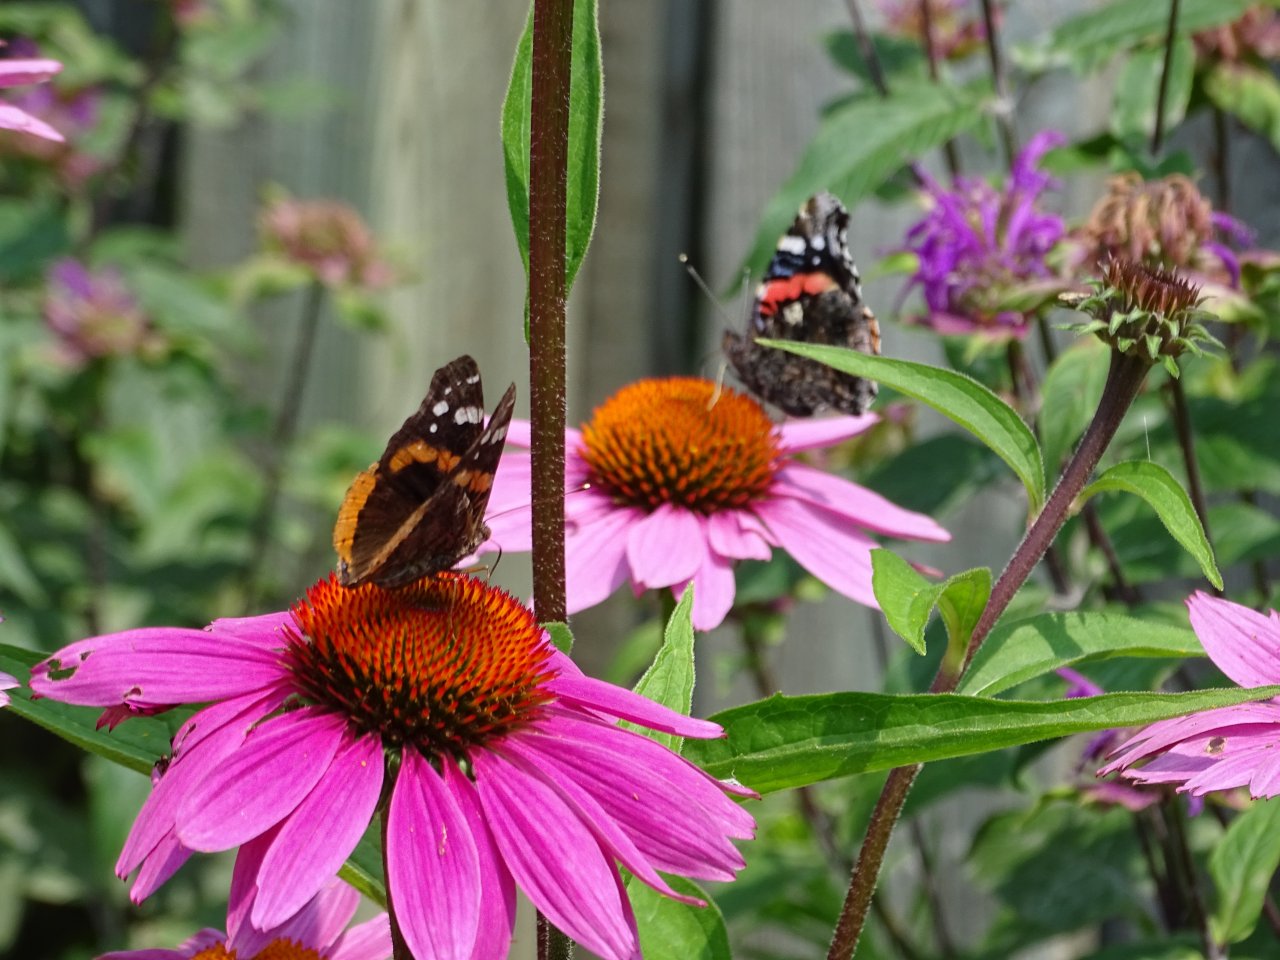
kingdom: Animalia
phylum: Arthropoda
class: Insecta
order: Lepidoptera
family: Nymphalidae
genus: Vanessa
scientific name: Vanessa atalanta
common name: Red Admiral
